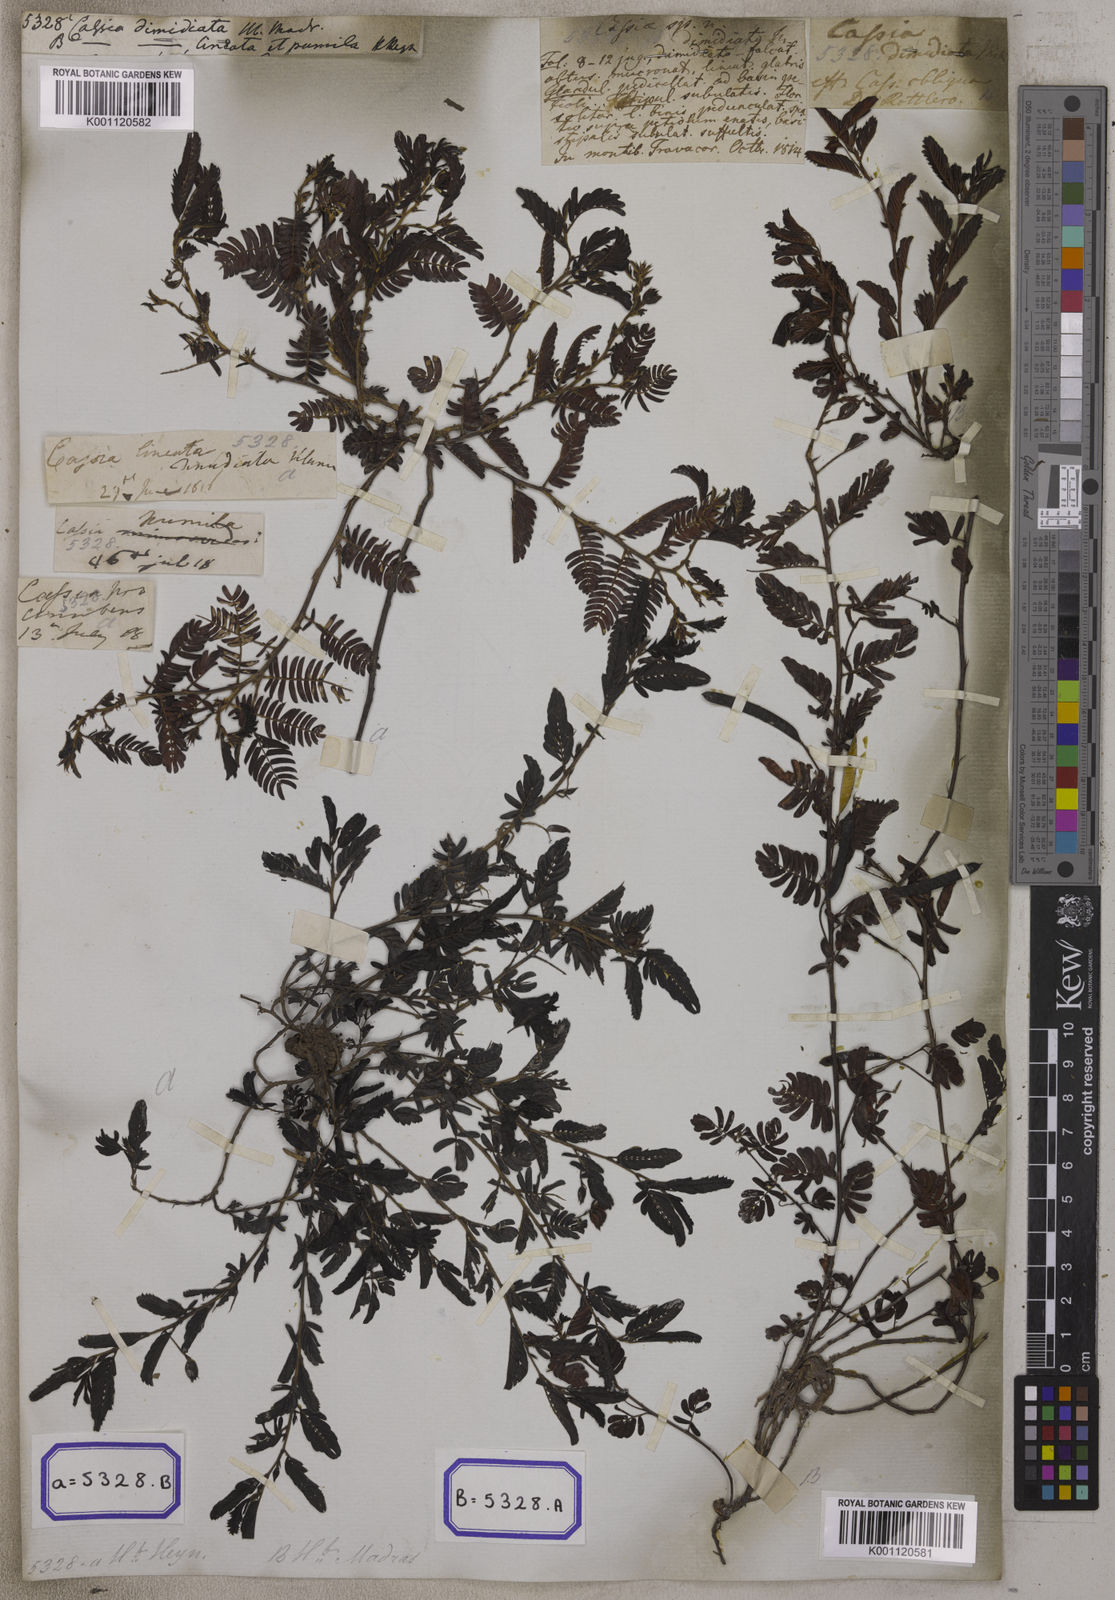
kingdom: Plantae
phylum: Tracheophyta
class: Magnoliopsida
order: Fabales
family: Fabaceae
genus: Chamaecrista
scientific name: Chamaecrista nomame
